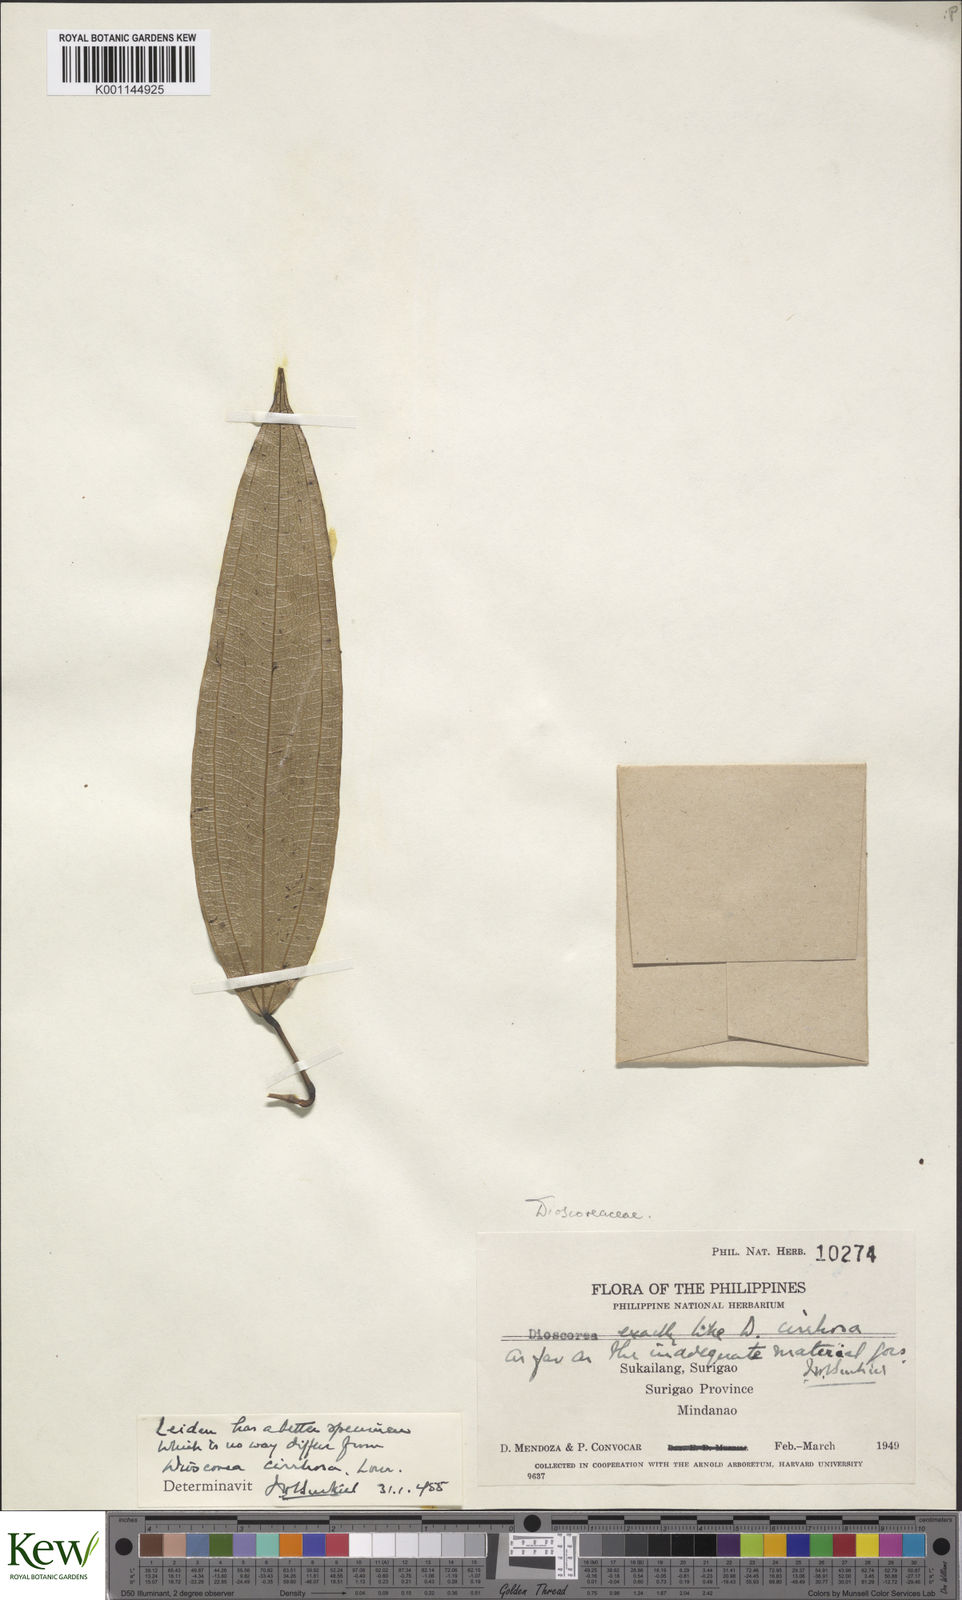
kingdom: Plantae
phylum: Tracheophyta
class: Liliopsida
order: Dioscoreales
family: Dioscoreaceae
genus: Dioscorea
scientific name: Dioscorea
